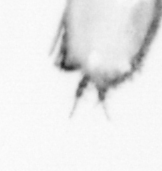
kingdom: Animalia
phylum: Arthropoda
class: Copepoda
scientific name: Copepoda
